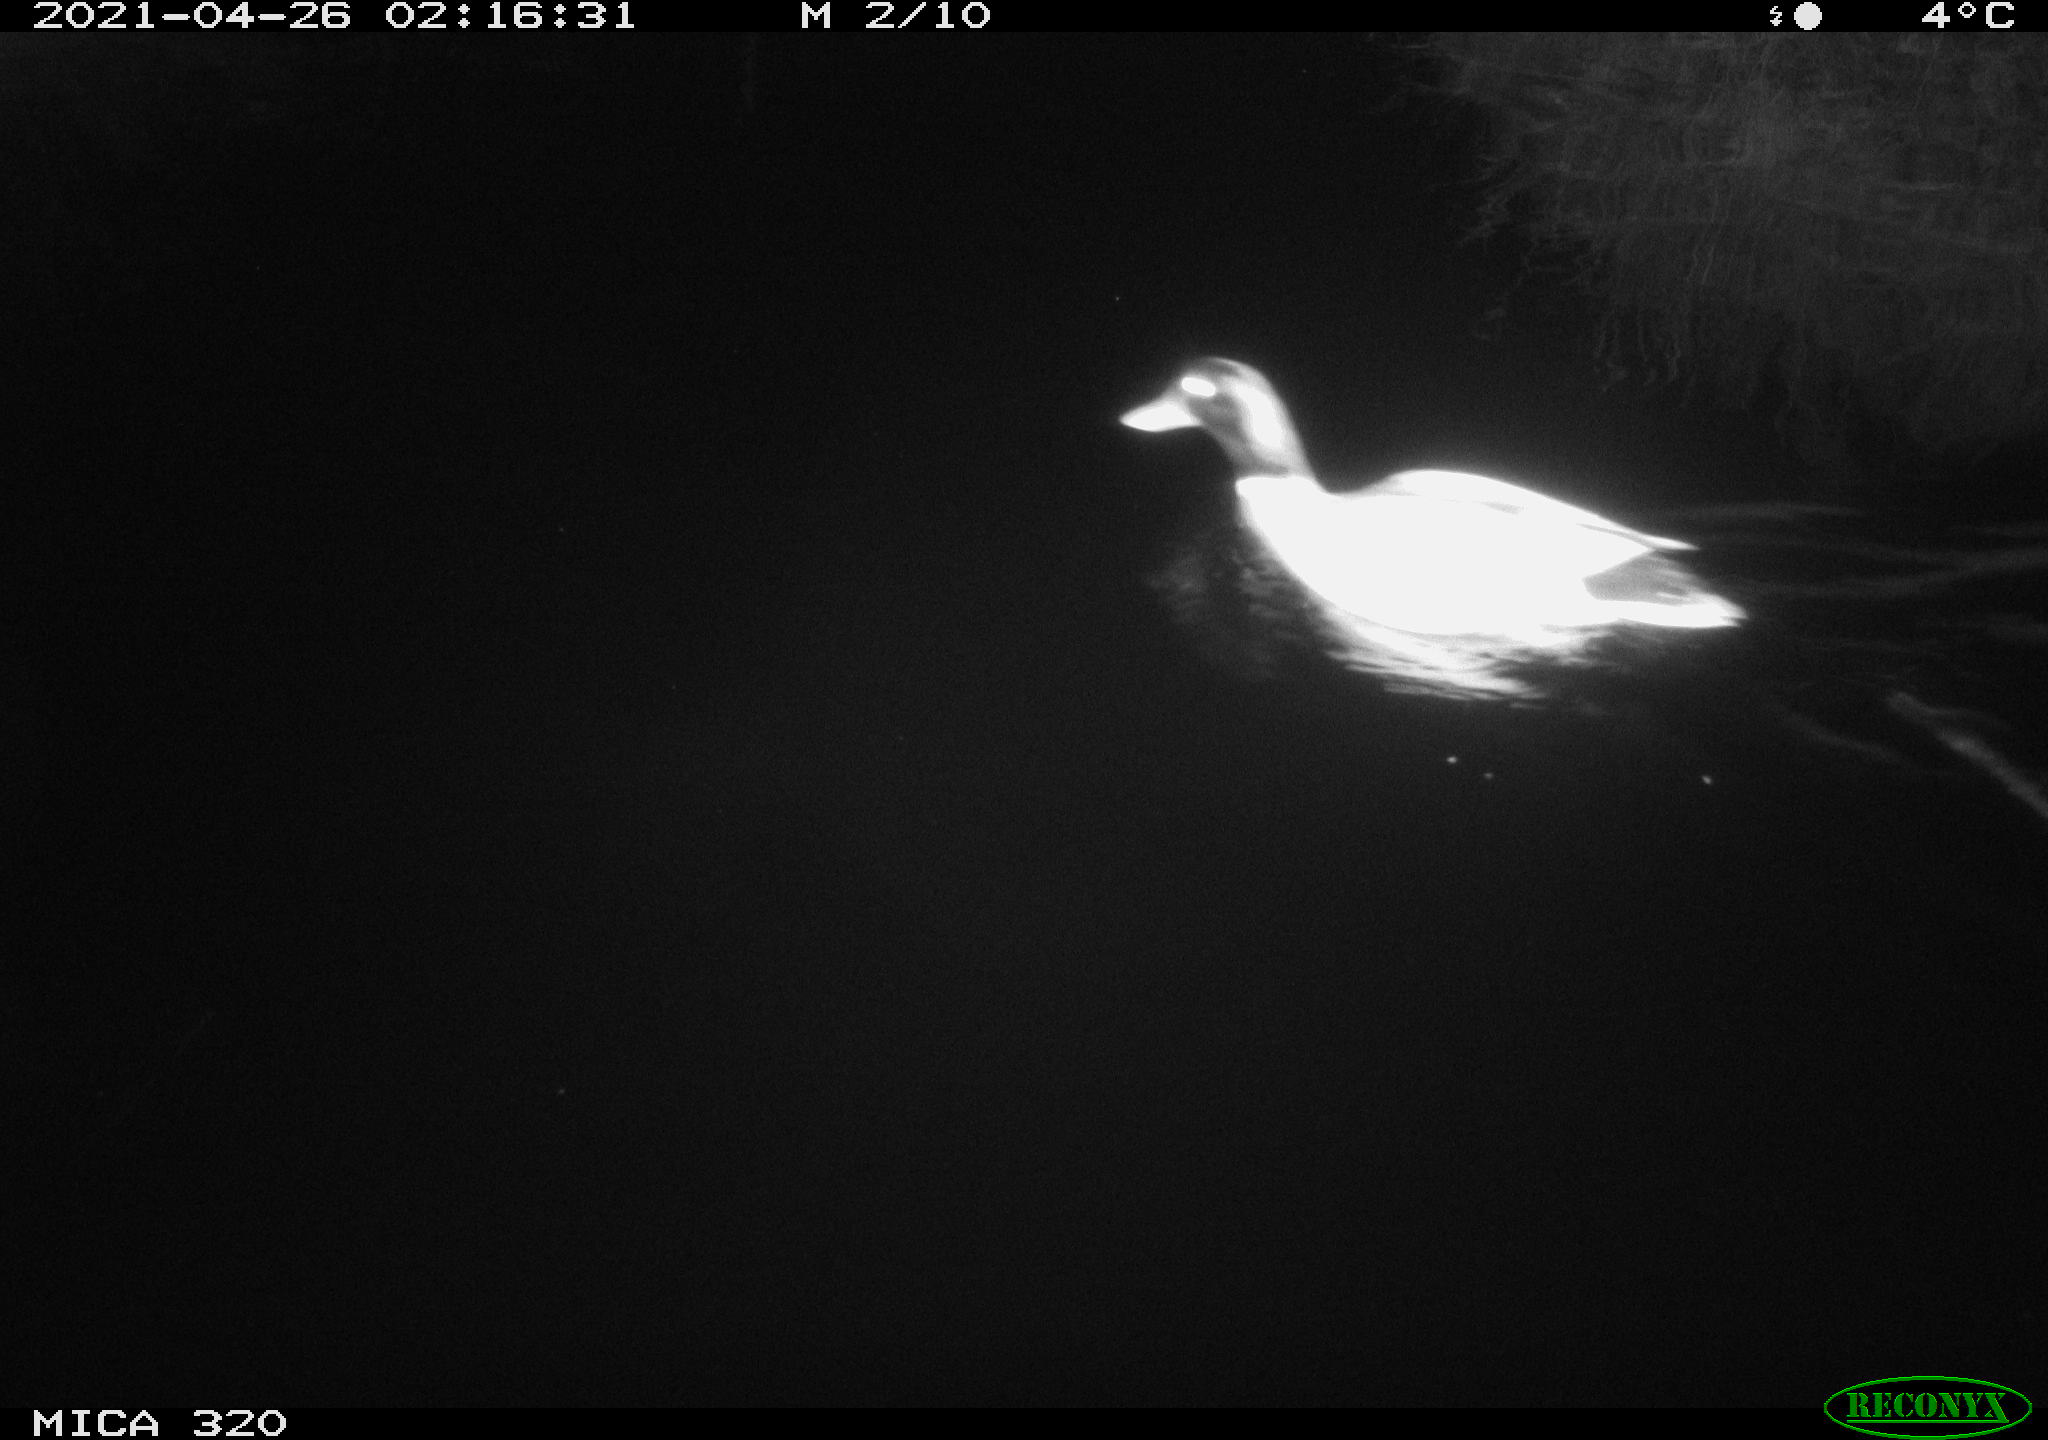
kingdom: Animalia
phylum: Chordata
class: Aves
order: Anseriformes
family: Anatidae
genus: Anas
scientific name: Anas platyrhynchos
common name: Mallard
